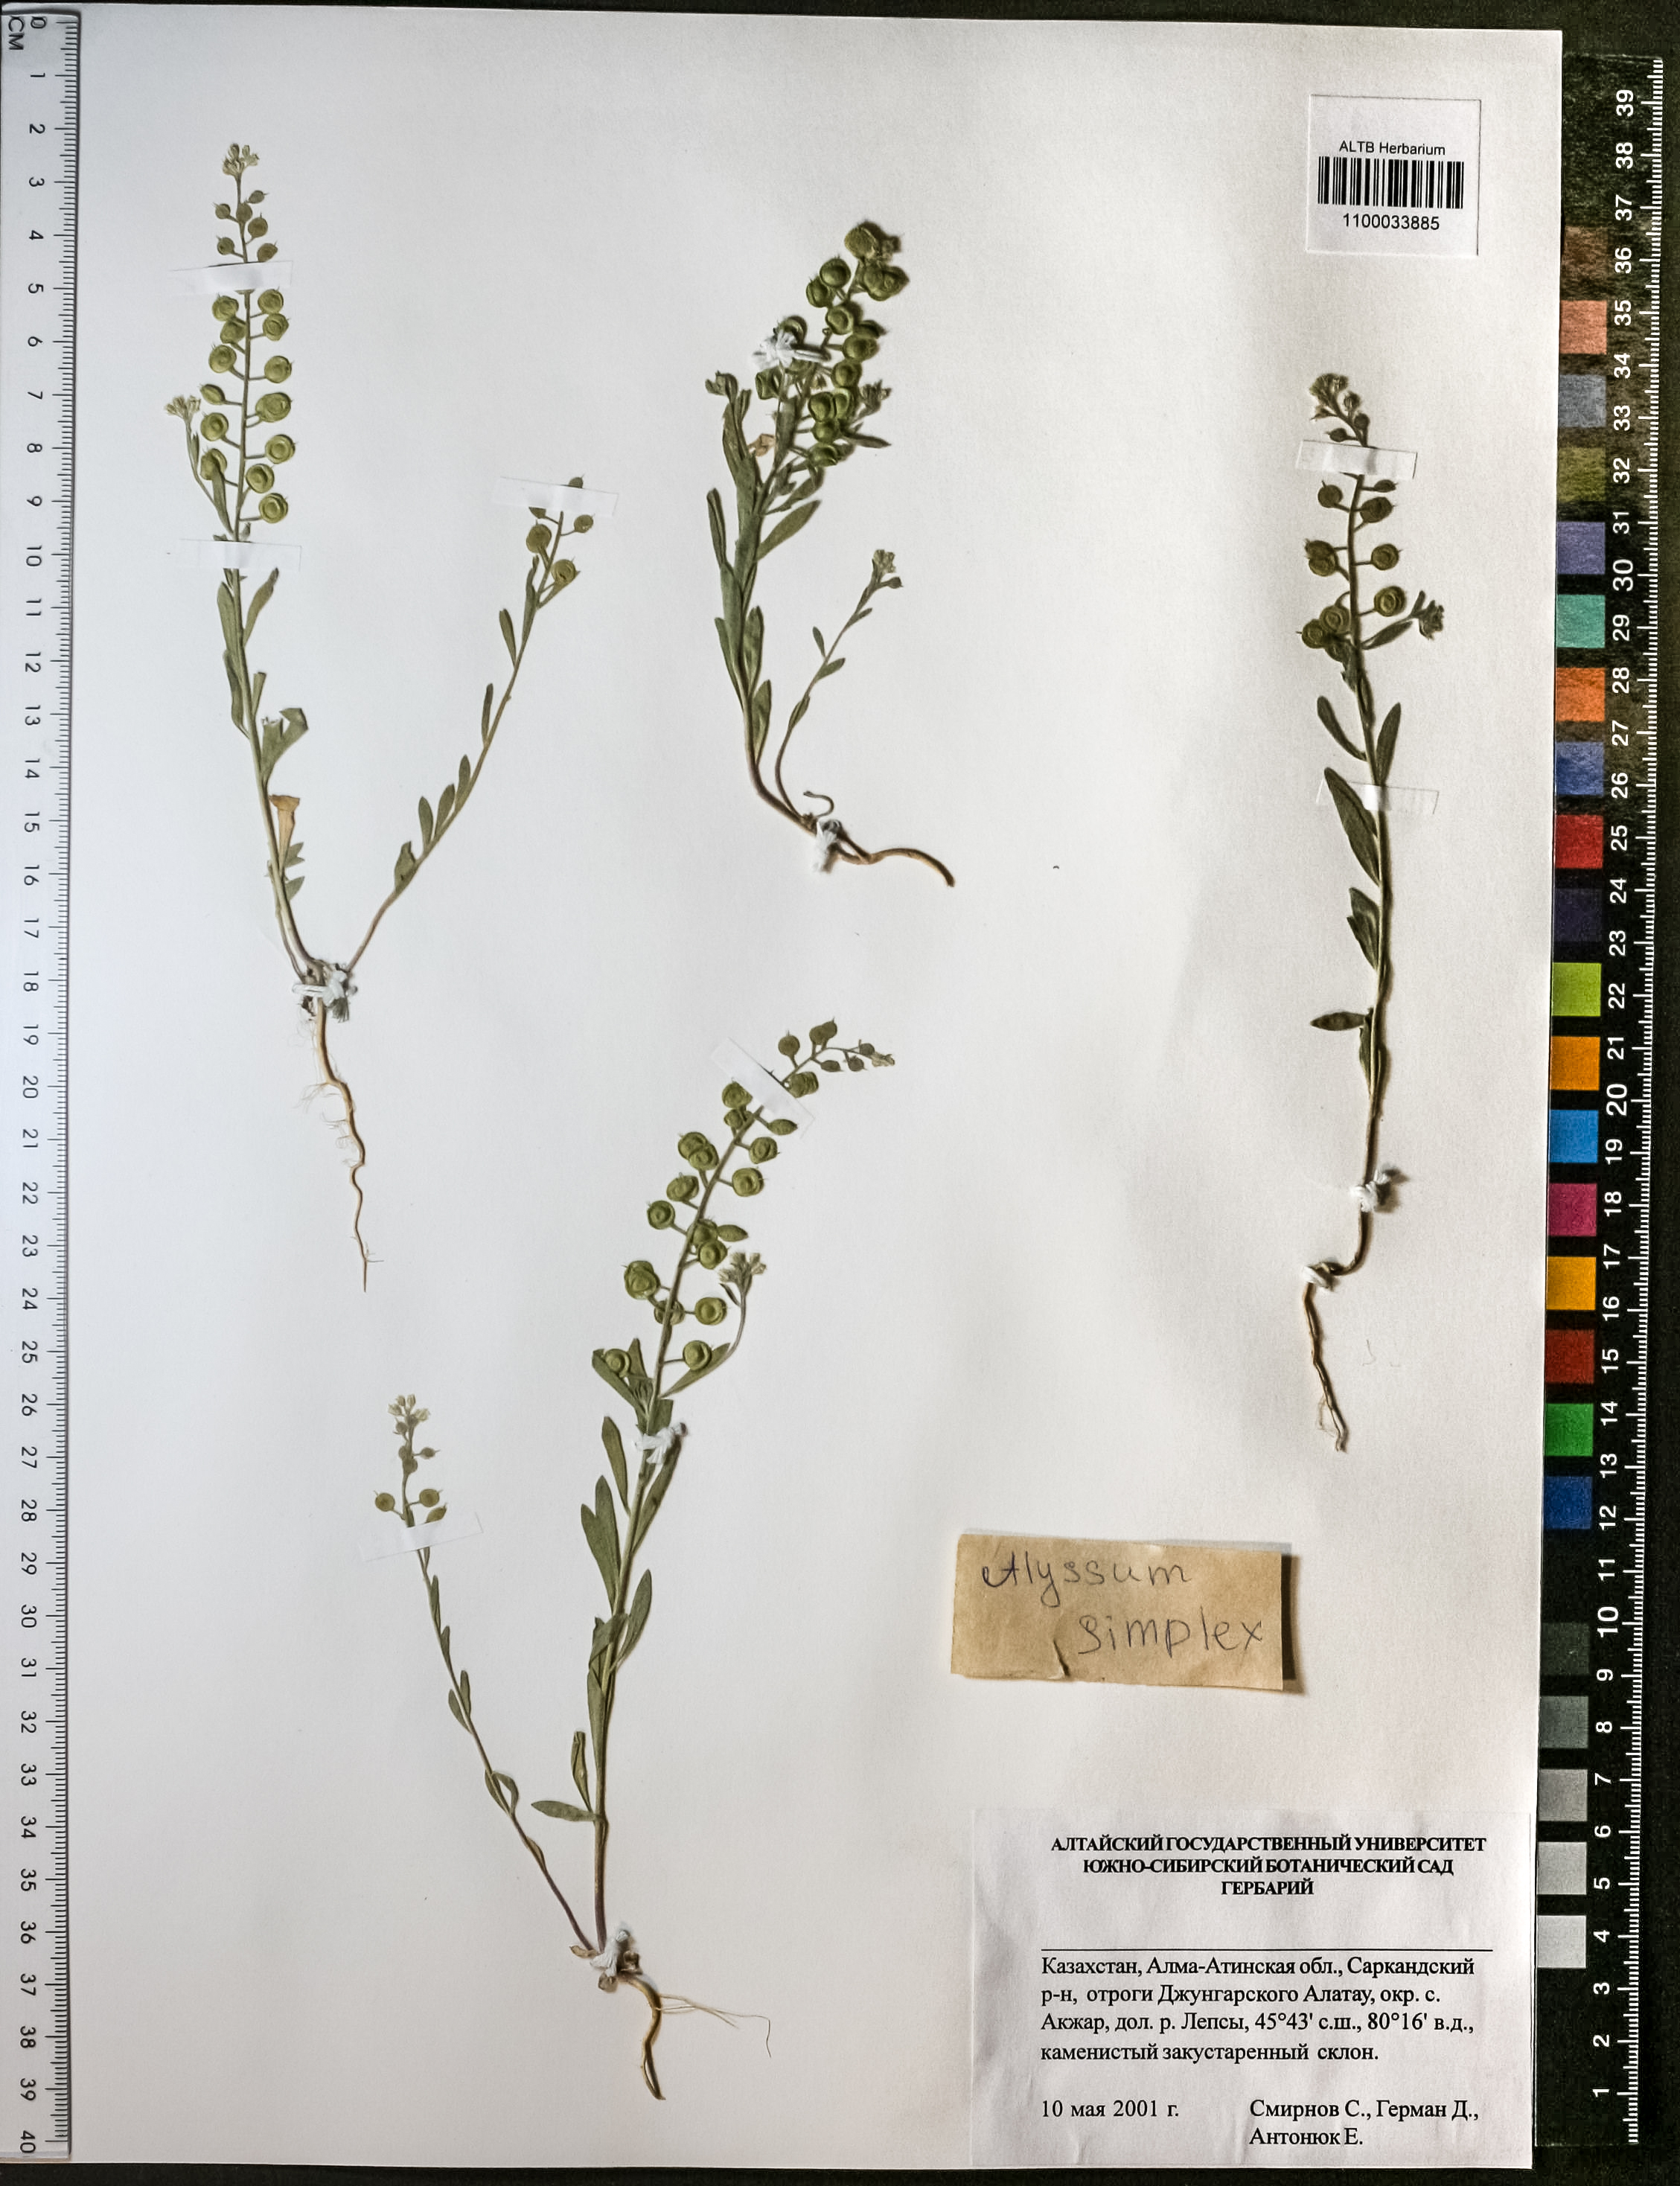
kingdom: Plantae
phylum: Tracheophyta
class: Magnoliopsida
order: Brassicales
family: Brassicaceae
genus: Alyssum
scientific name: Alyssum simplex
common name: Alyssum
